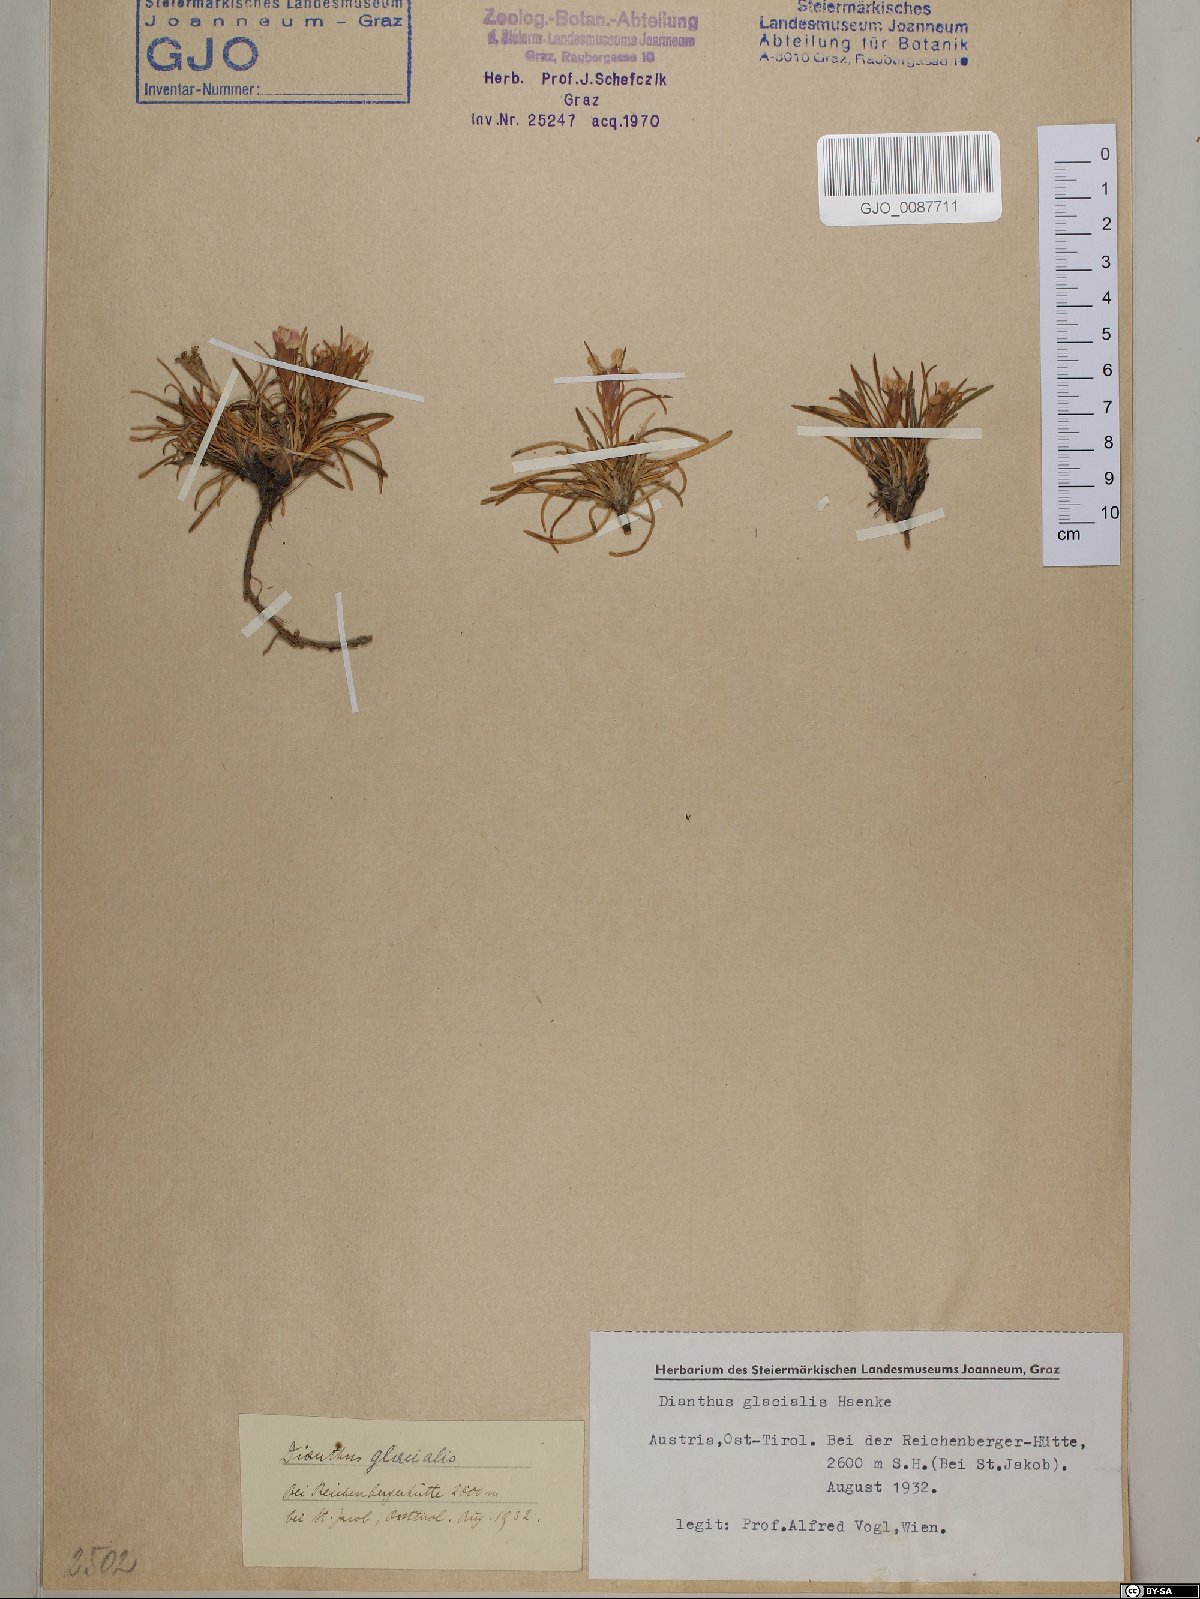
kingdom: Plantae
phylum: Tracheophyta
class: Magnoliopsida
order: Caryophyllales
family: Caryophyllaceae
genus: Dianthus
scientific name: Dianthus glacialis
